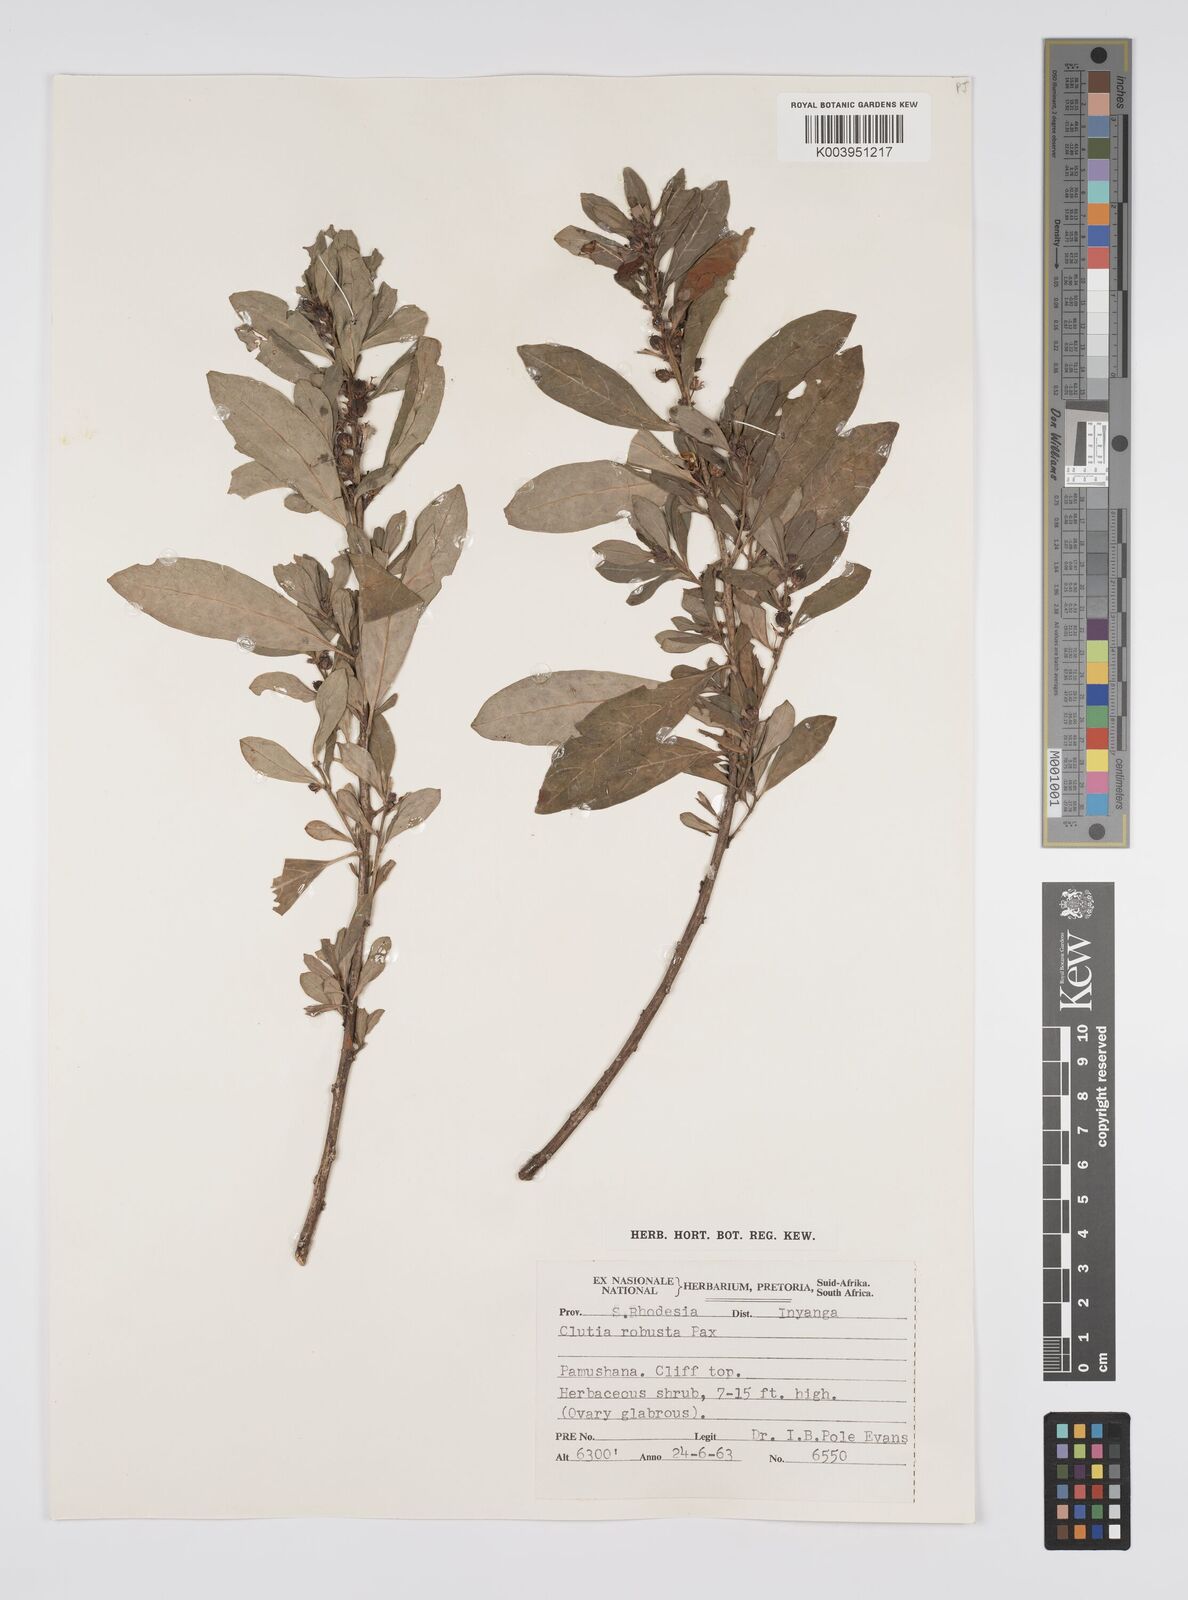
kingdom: Plantae
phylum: Tracheophyta
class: Magnoliopsida
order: Malpighiales
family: Peraceae
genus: Clutia
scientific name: Clutia kilimandscharica
